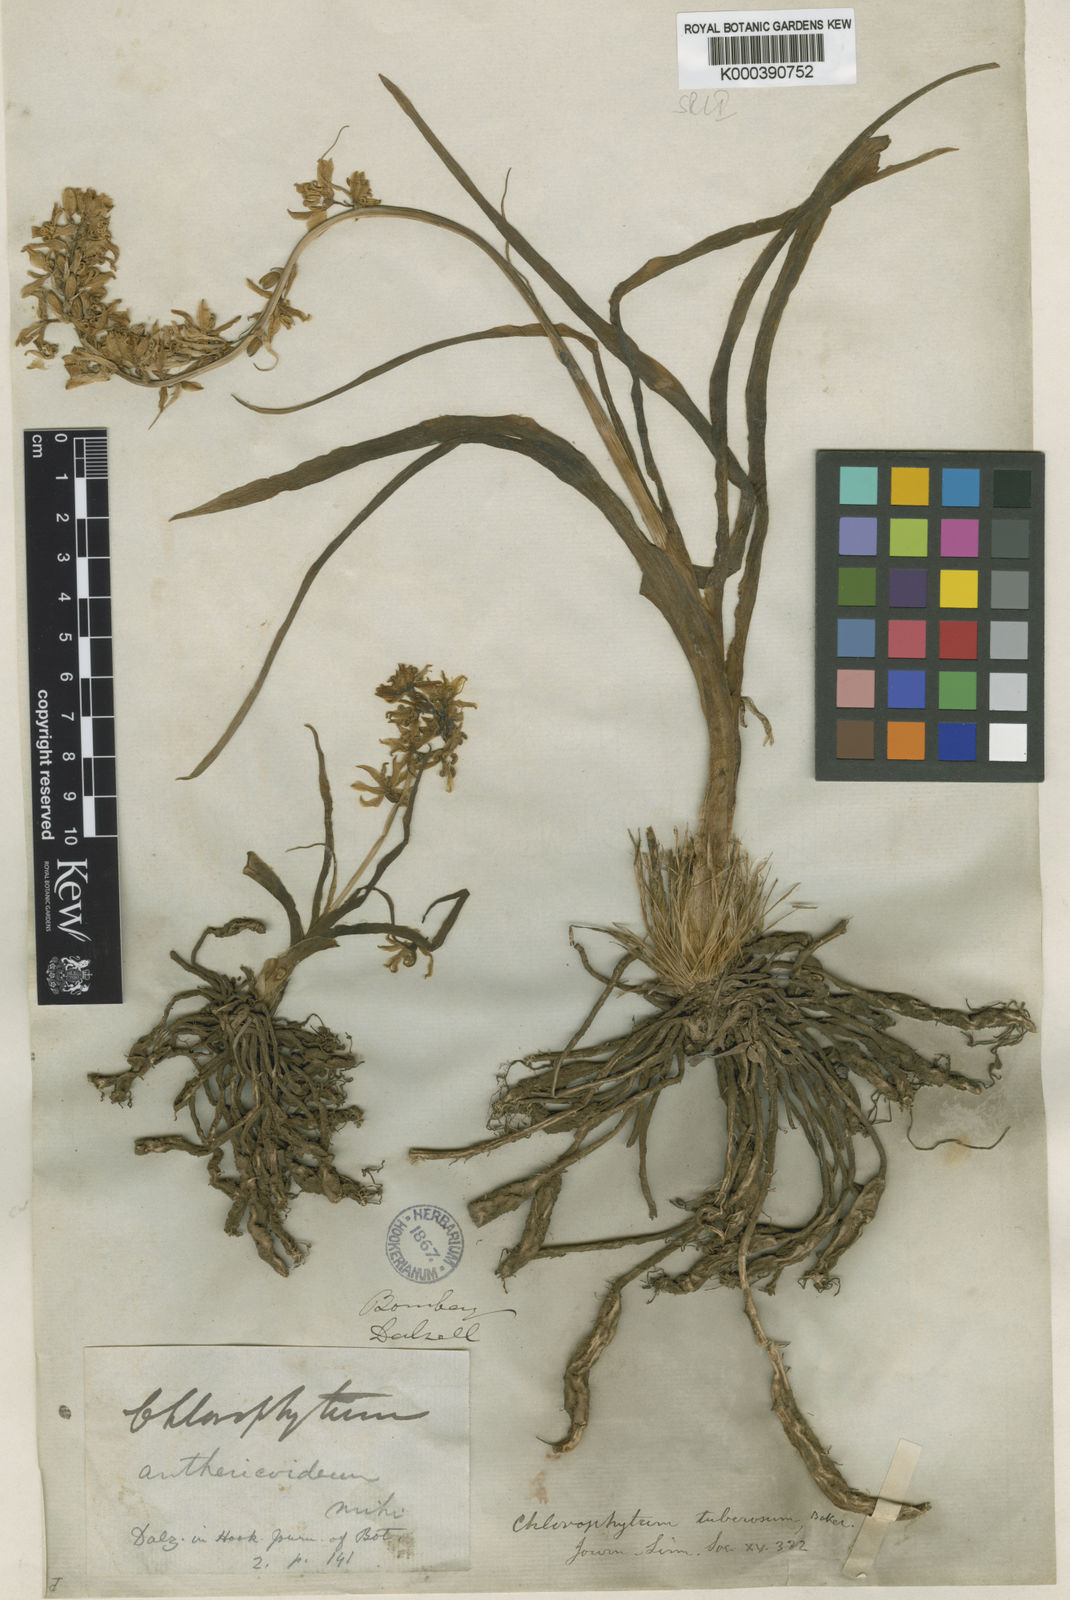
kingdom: Plantae
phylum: Tracheophyta
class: Liliopsida
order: Asparagales
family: Asparagaceae
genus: Chlorophytum
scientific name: Chlorophytum tuberosum
